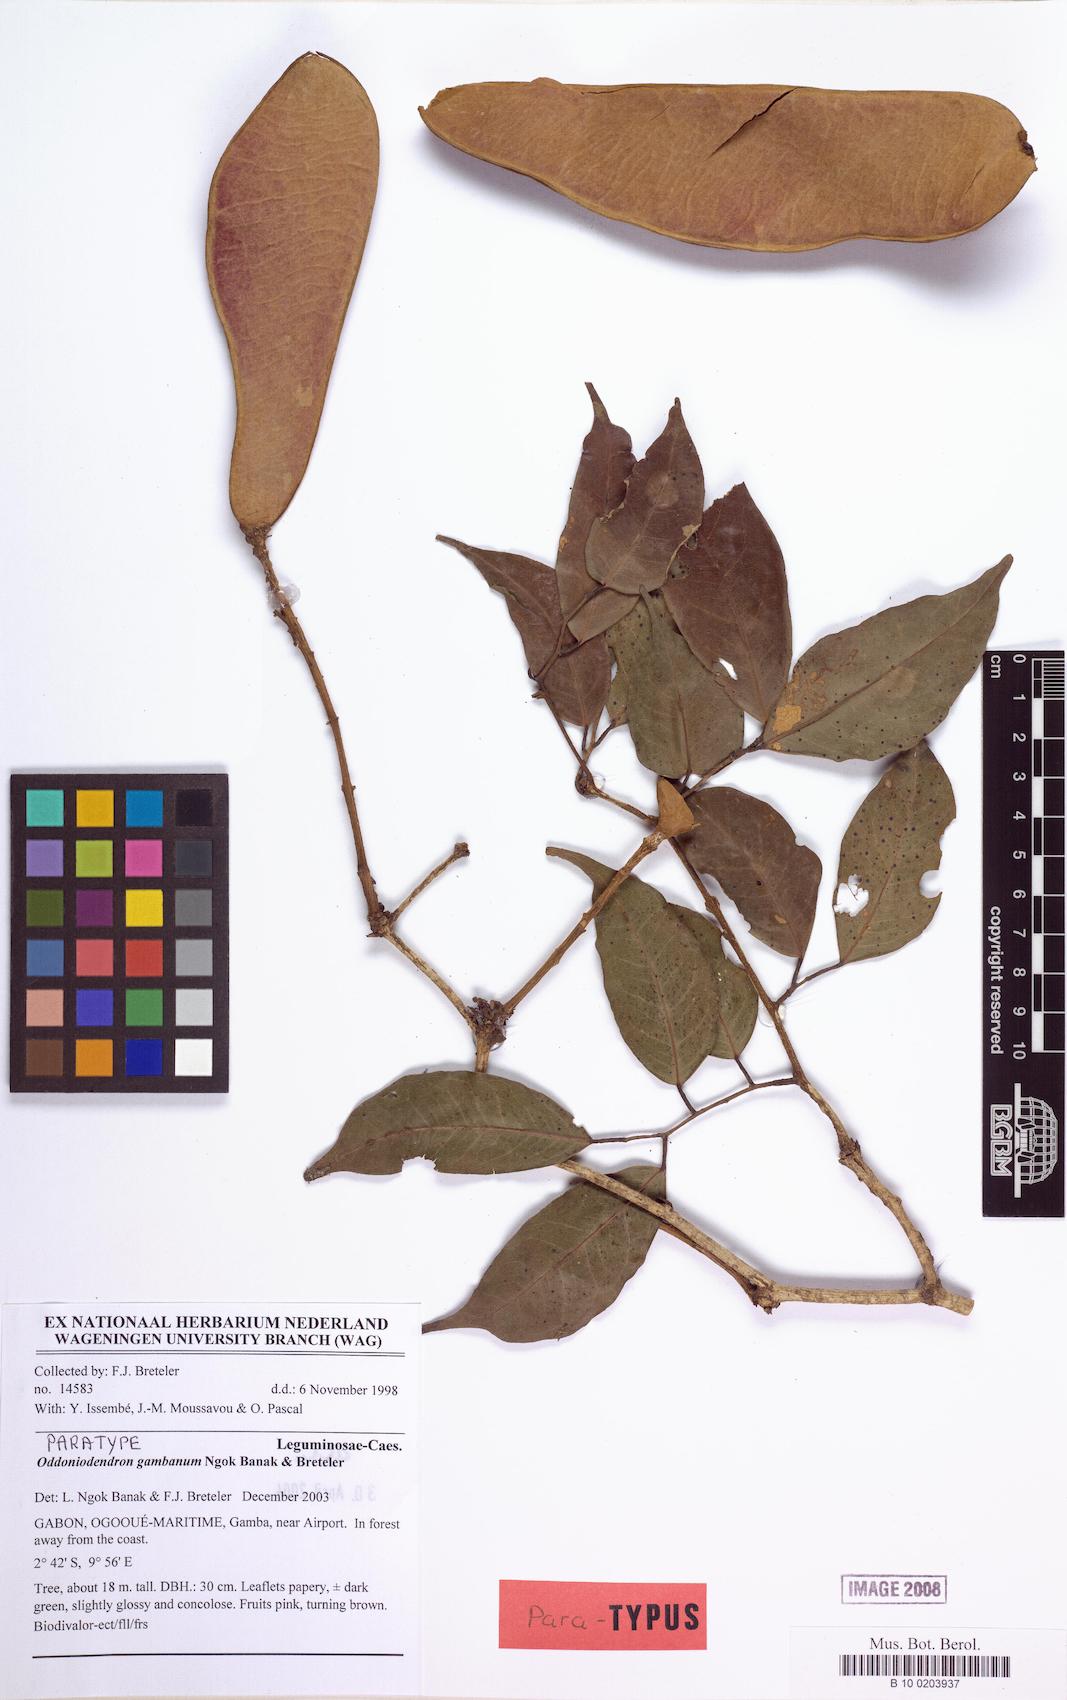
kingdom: Plantae
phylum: Tracheophyta
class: Magnoliopsida
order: Fabales
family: Fabaceae
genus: Oddoniodendron
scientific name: Oddoniodendron gambanum
